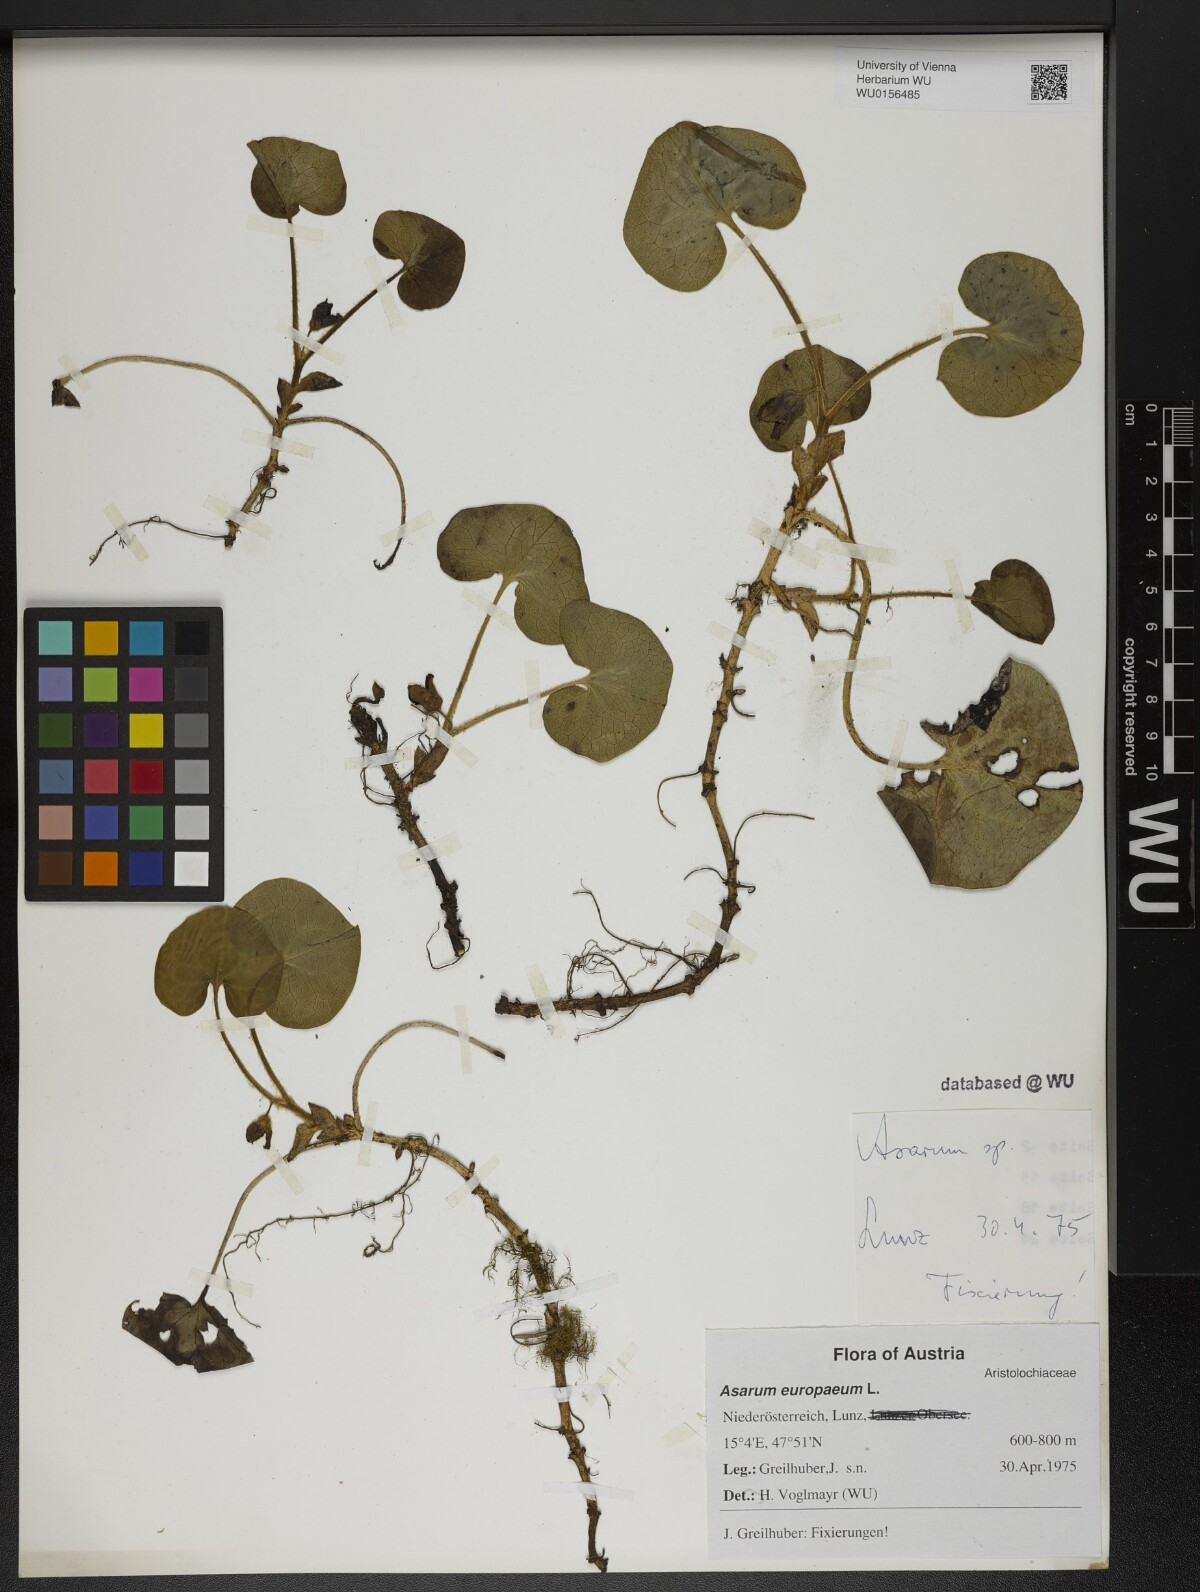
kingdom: Plantae
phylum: Tracheophyta
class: Magnoliopsida
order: Piperales
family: Aristolochiaceae
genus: Asarum
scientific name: Asarum europaeum
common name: Asarabacca
